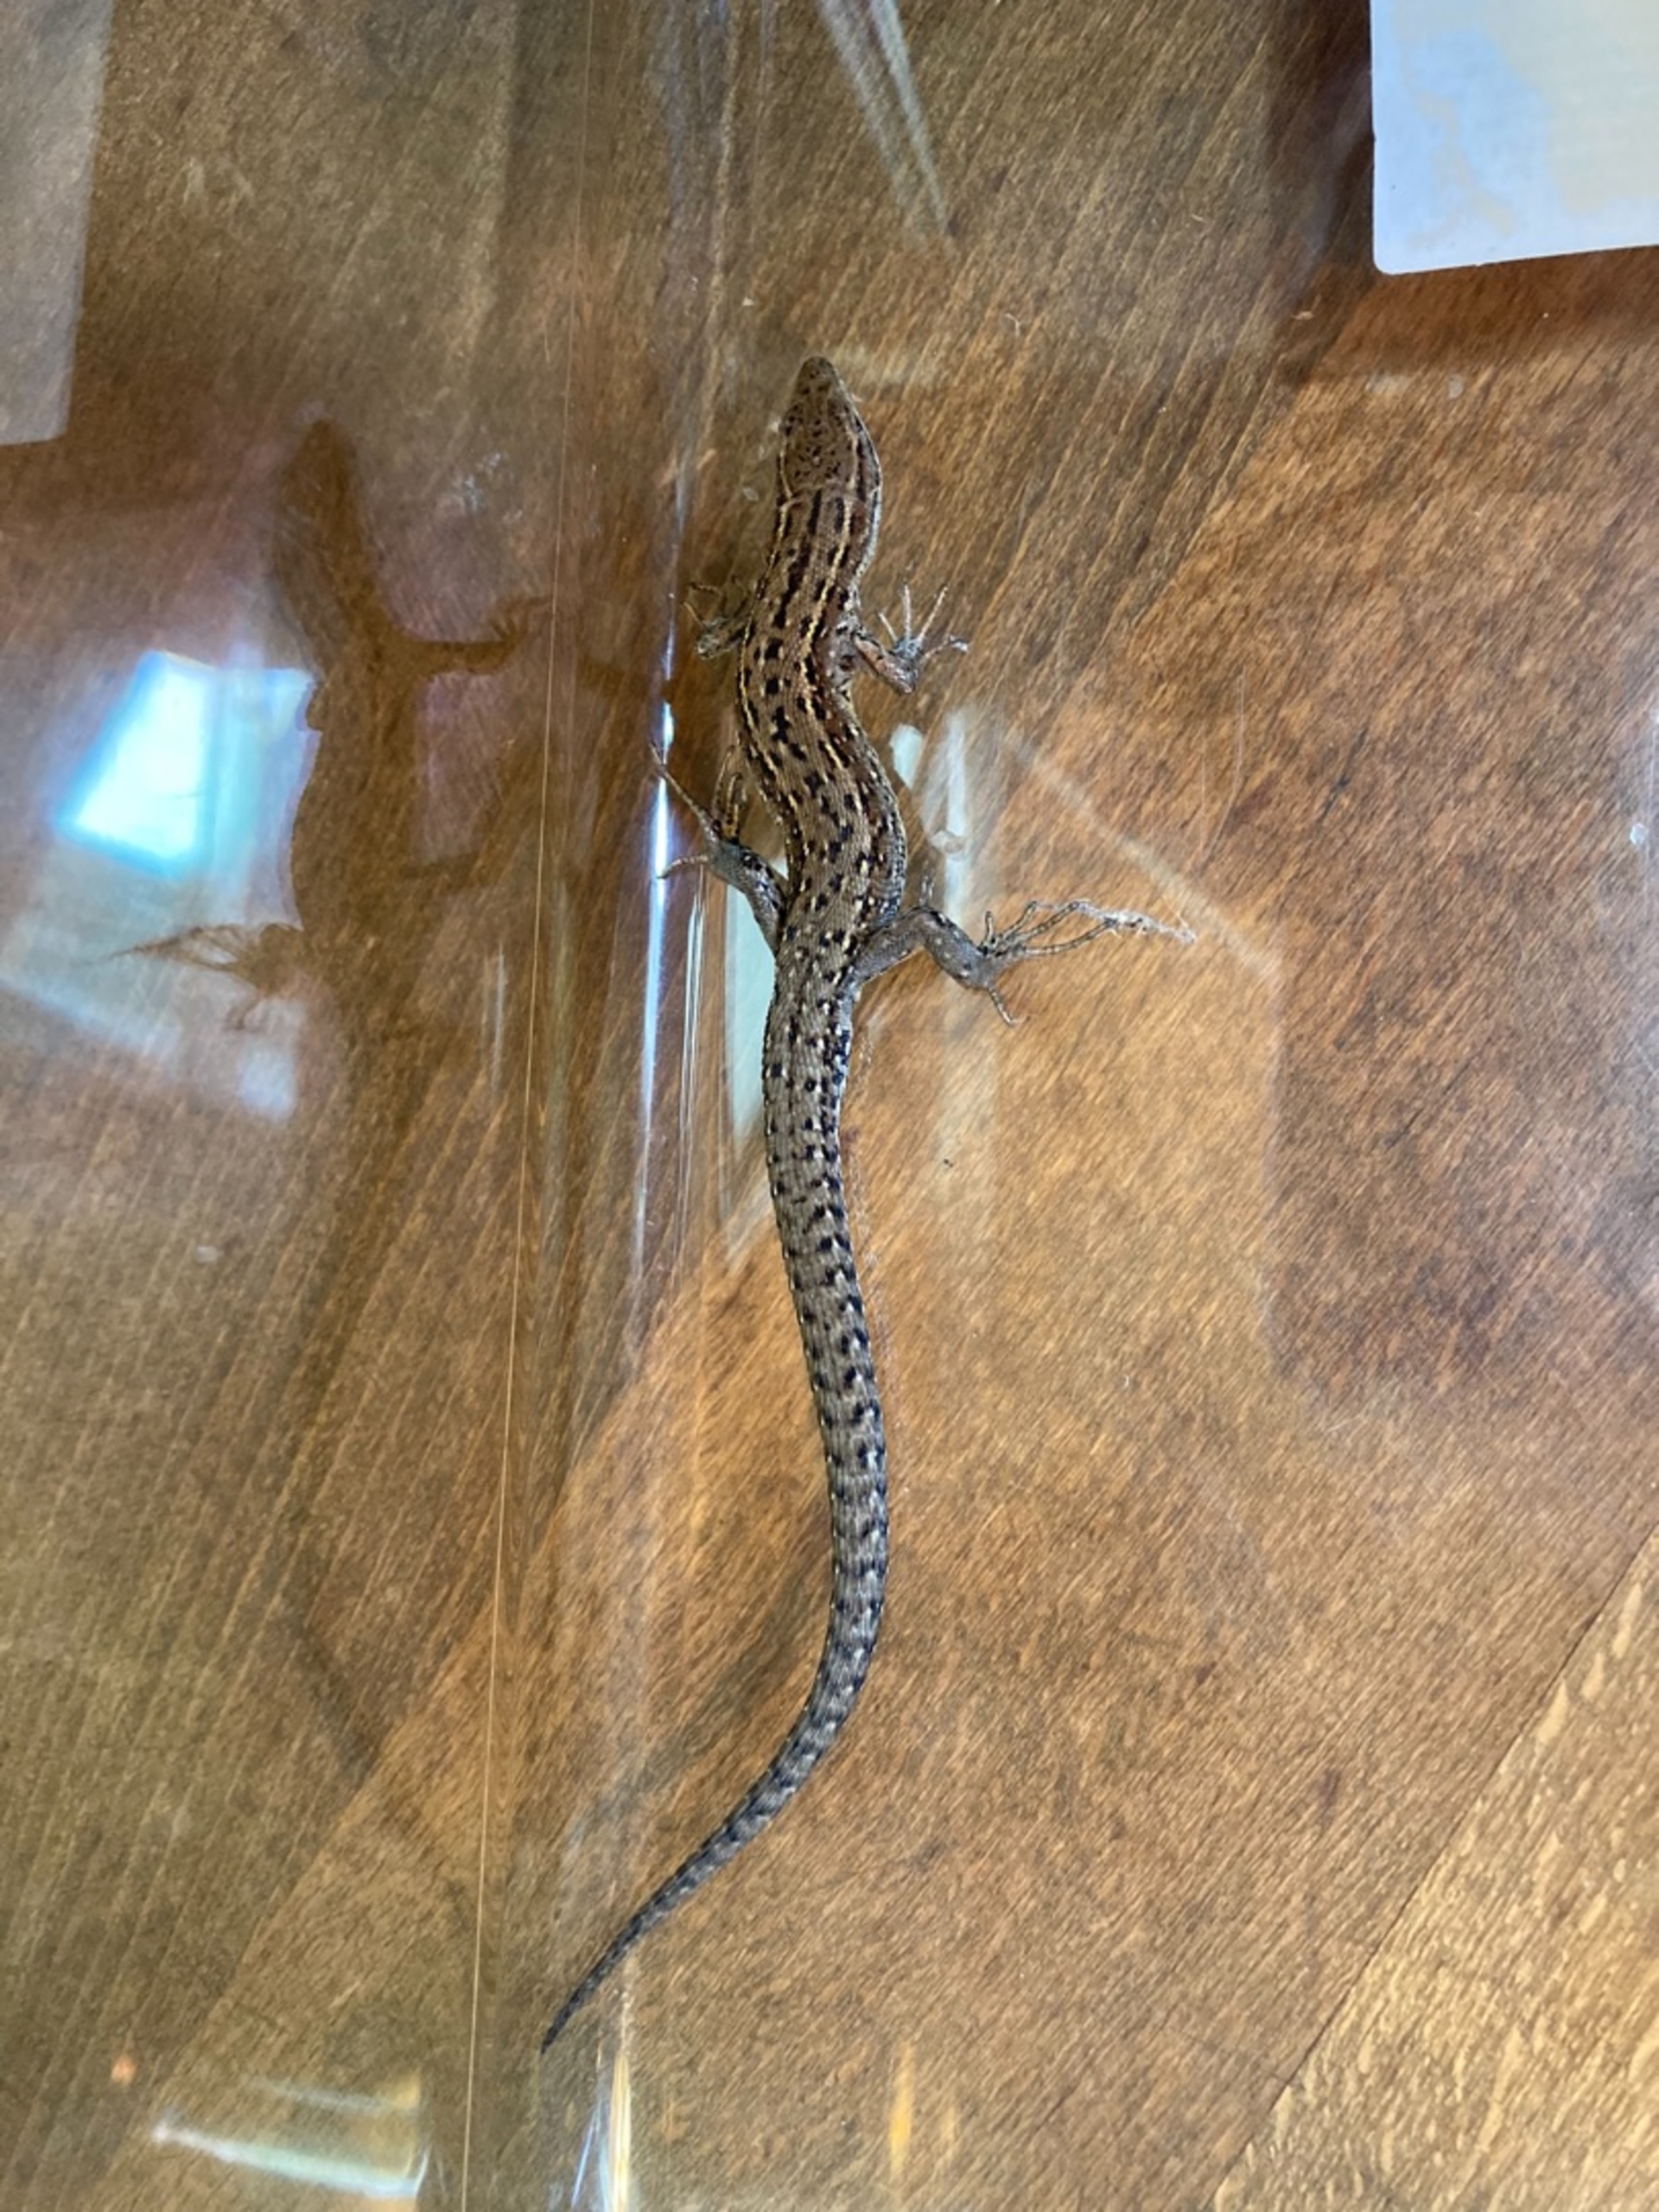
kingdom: Animalia
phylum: Chordata
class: Squamata
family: Lacertidae
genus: Zootoca
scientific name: Zootoca vivipara
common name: Skovfirben
